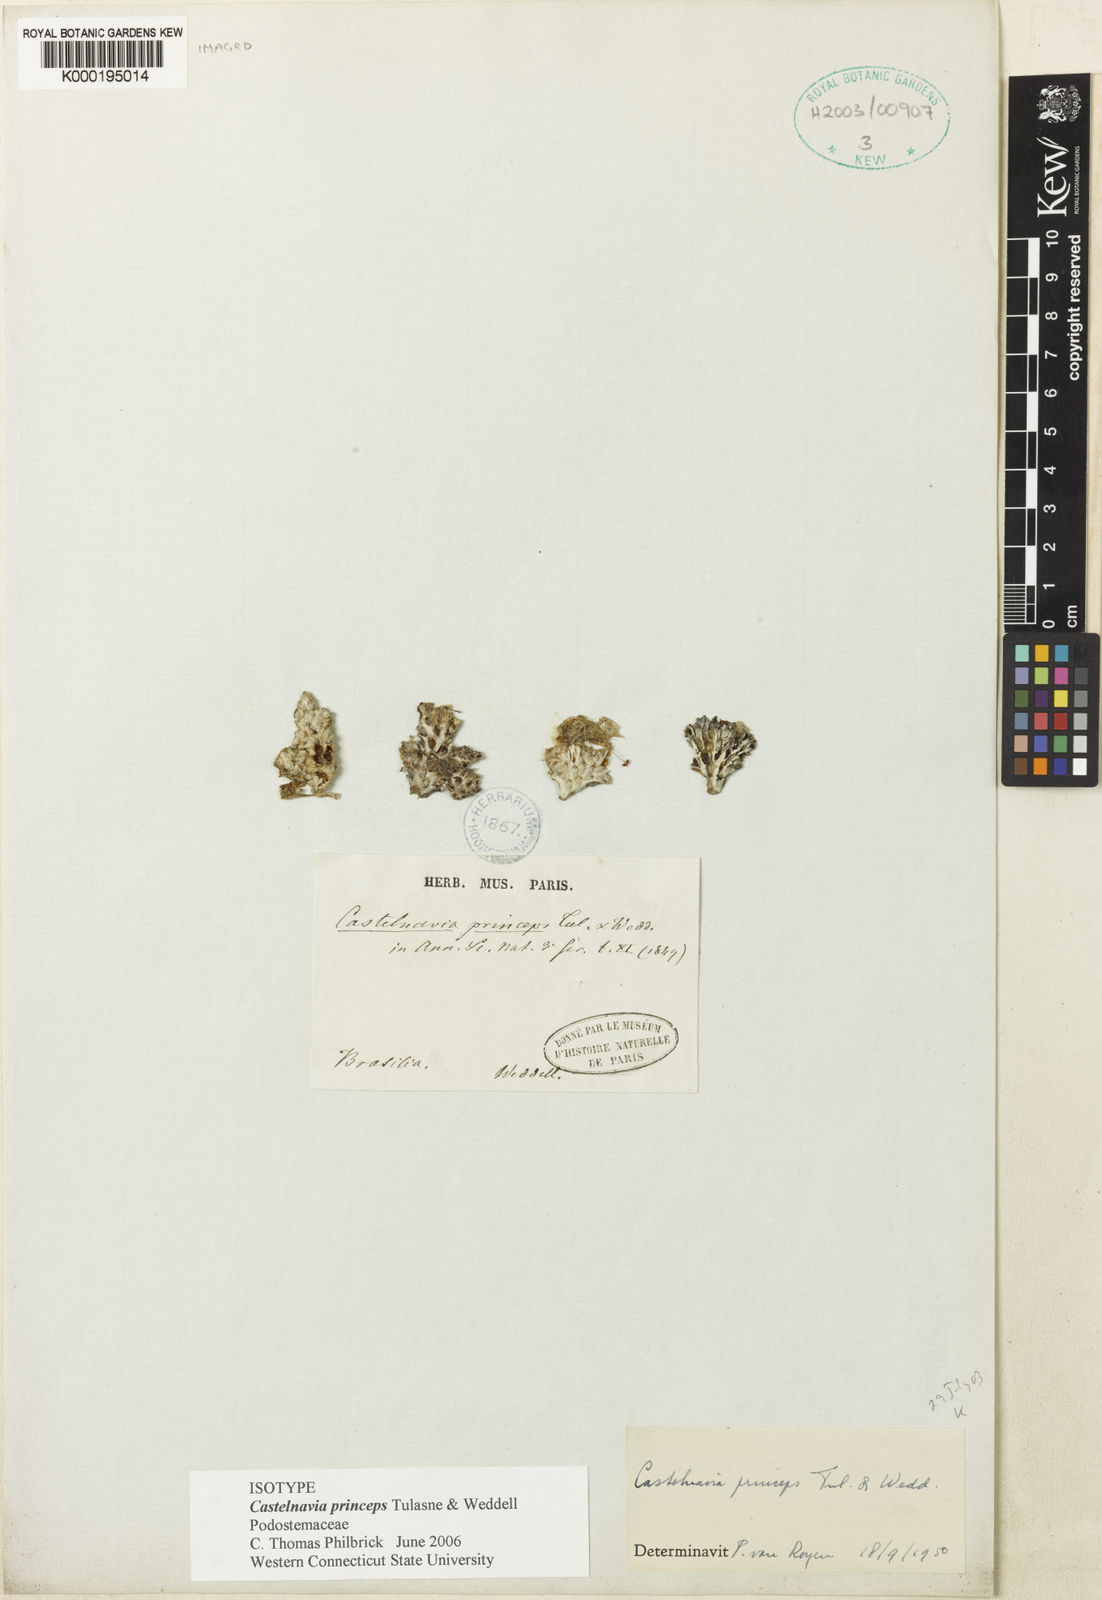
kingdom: Plantae
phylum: Tracheophyta
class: Magnoliopsida
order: Malpighiales
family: Podostemaceae
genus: Castelnavia
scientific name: Castelnavia princeps
